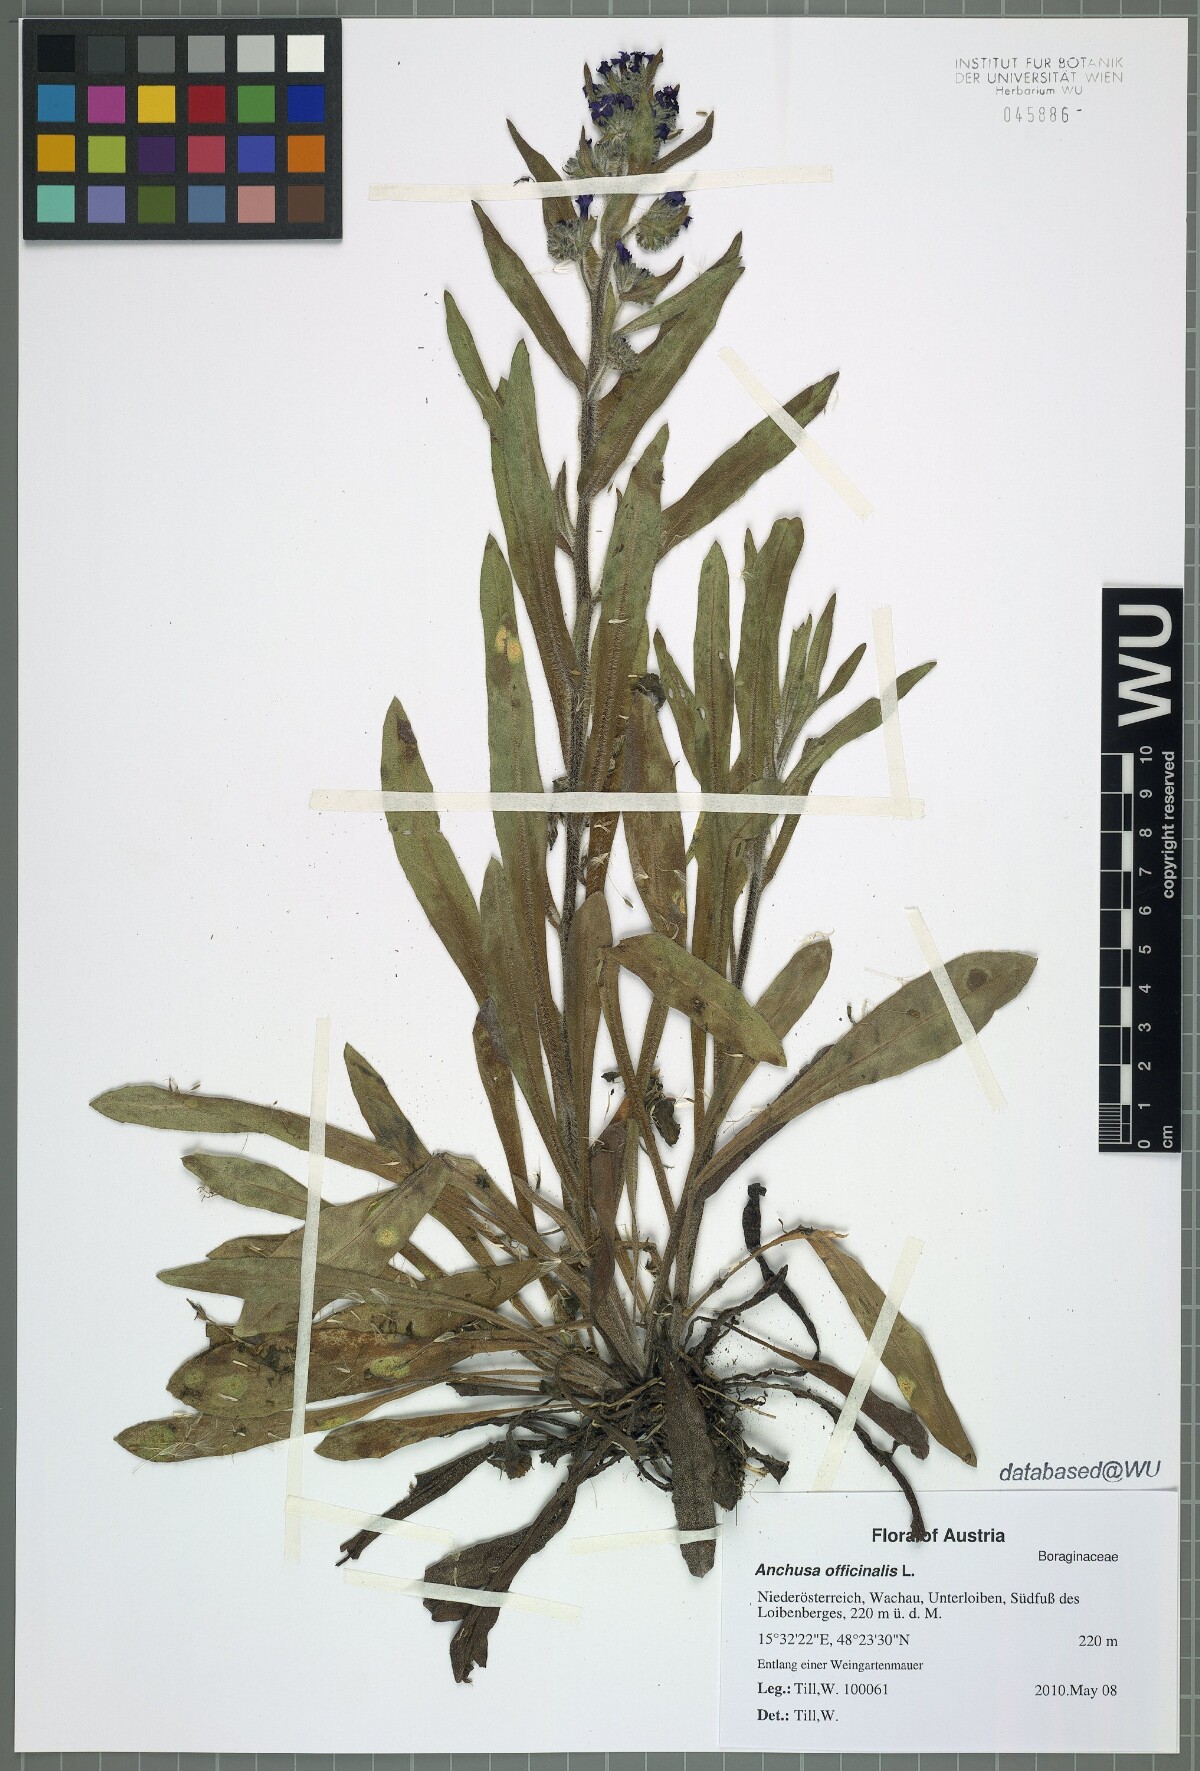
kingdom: Plantae
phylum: Tracheophyta
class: Magnoliopsida
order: Boraginales
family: Boraginaceae
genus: Anchusa
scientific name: Anchusa officinalis
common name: Alkanet
